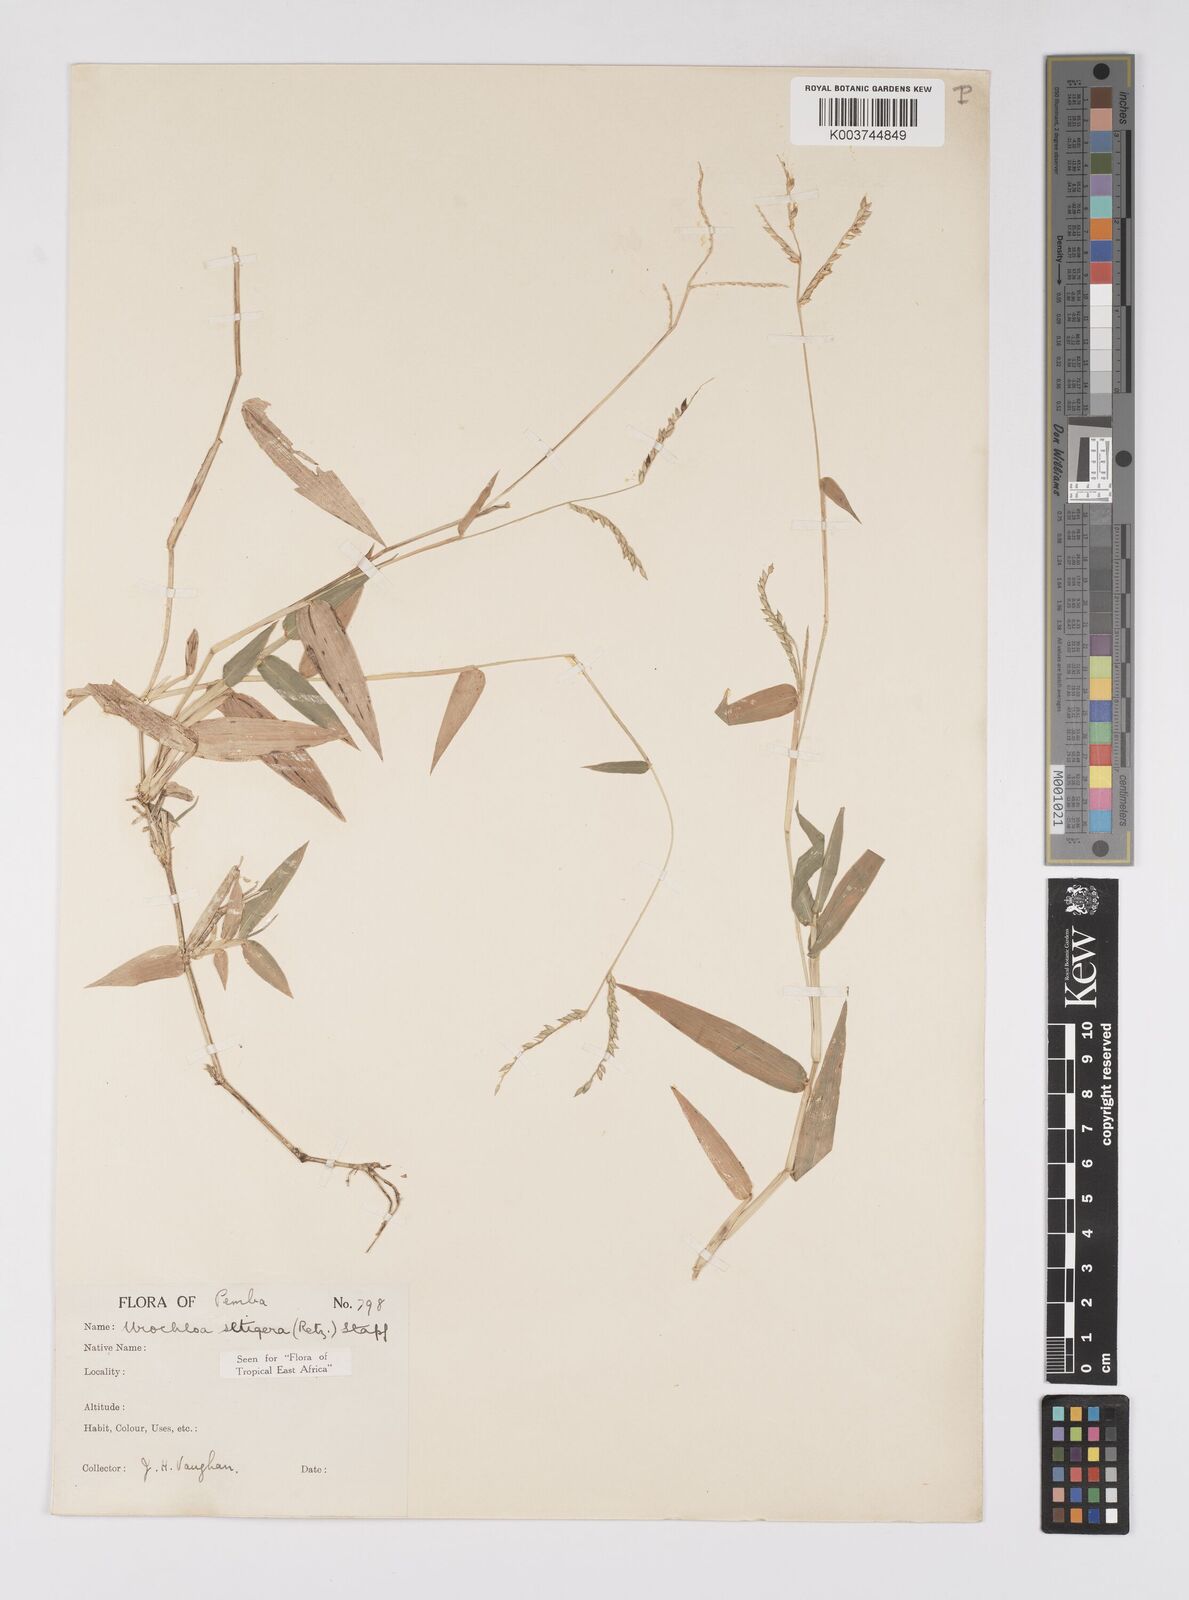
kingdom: Plantae
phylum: Tracheophyta
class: Liliopsida
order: Poales
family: Poaceae
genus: Urochloa
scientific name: Urochloa trichopodioides
